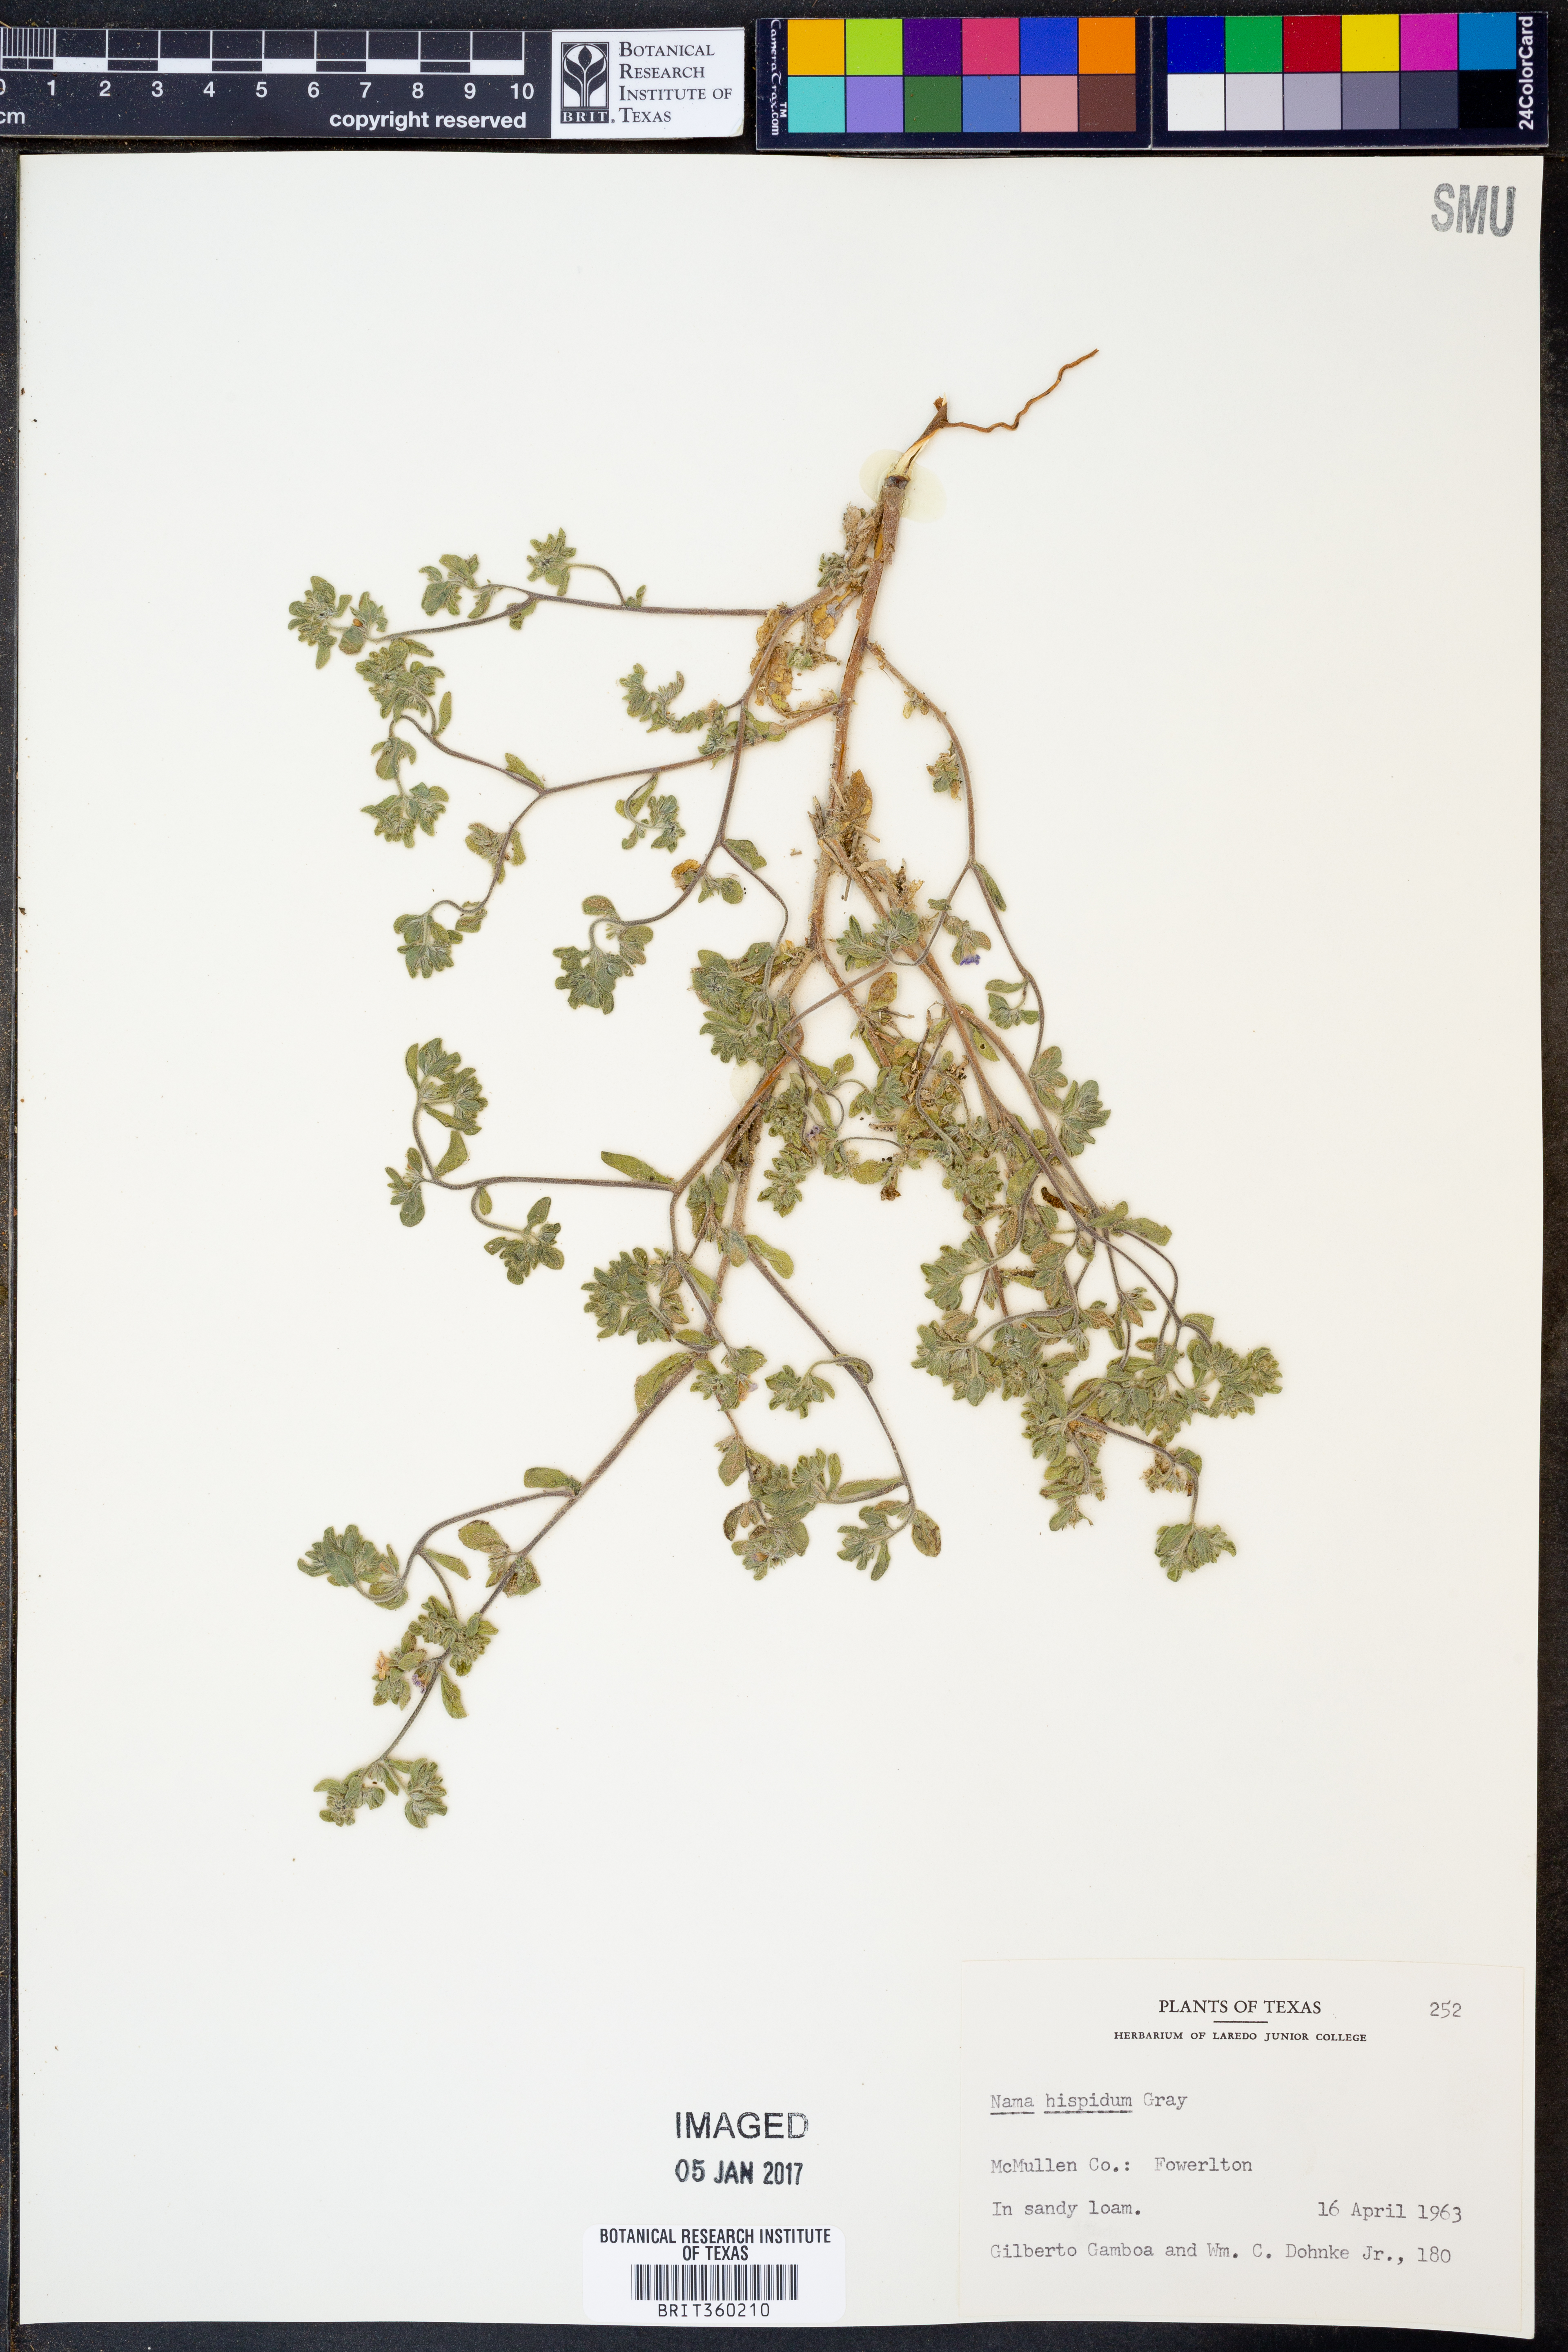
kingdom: Plantae
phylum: Tracheophyta
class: Magnoliopsida
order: Boraginales
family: Namaceae
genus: Nama
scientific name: Nama hispida
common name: Bristly nama
